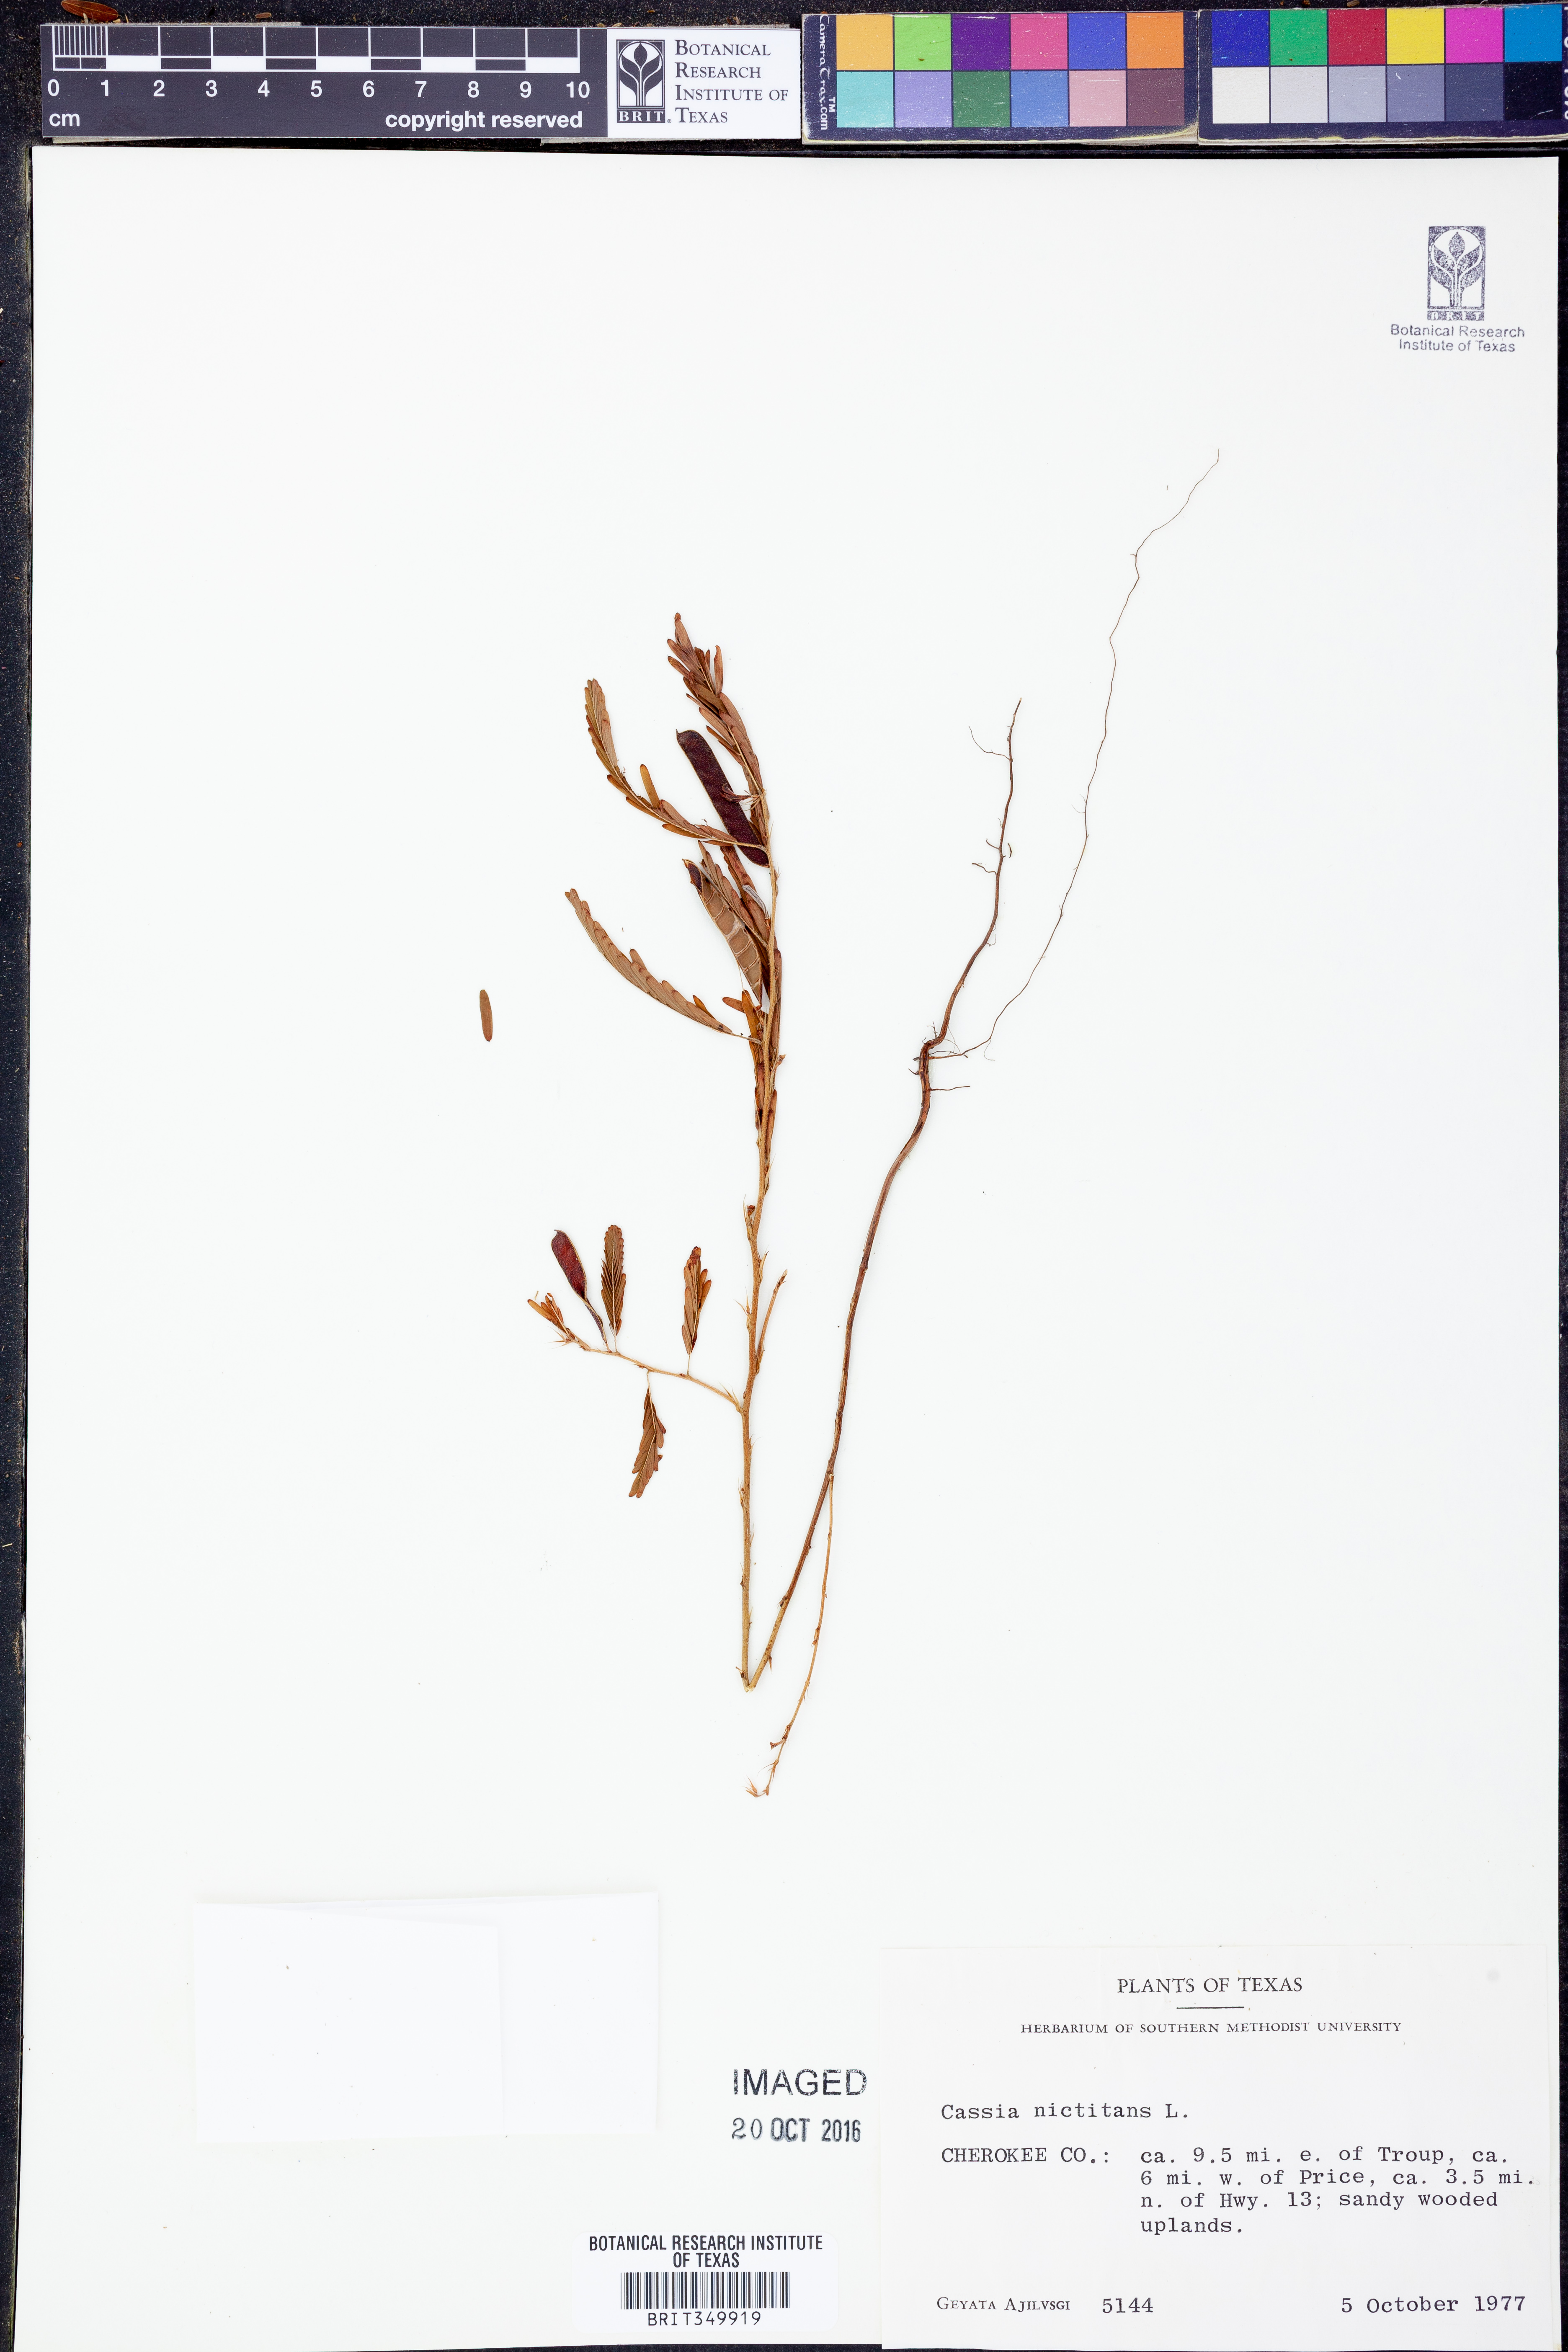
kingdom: Plantae
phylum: Tracheophyta
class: Magnoliopsida
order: Fabales
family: Fabaceae
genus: Chamaecrista
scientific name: Chamaecrista nictitans
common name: Sensitive cassia
